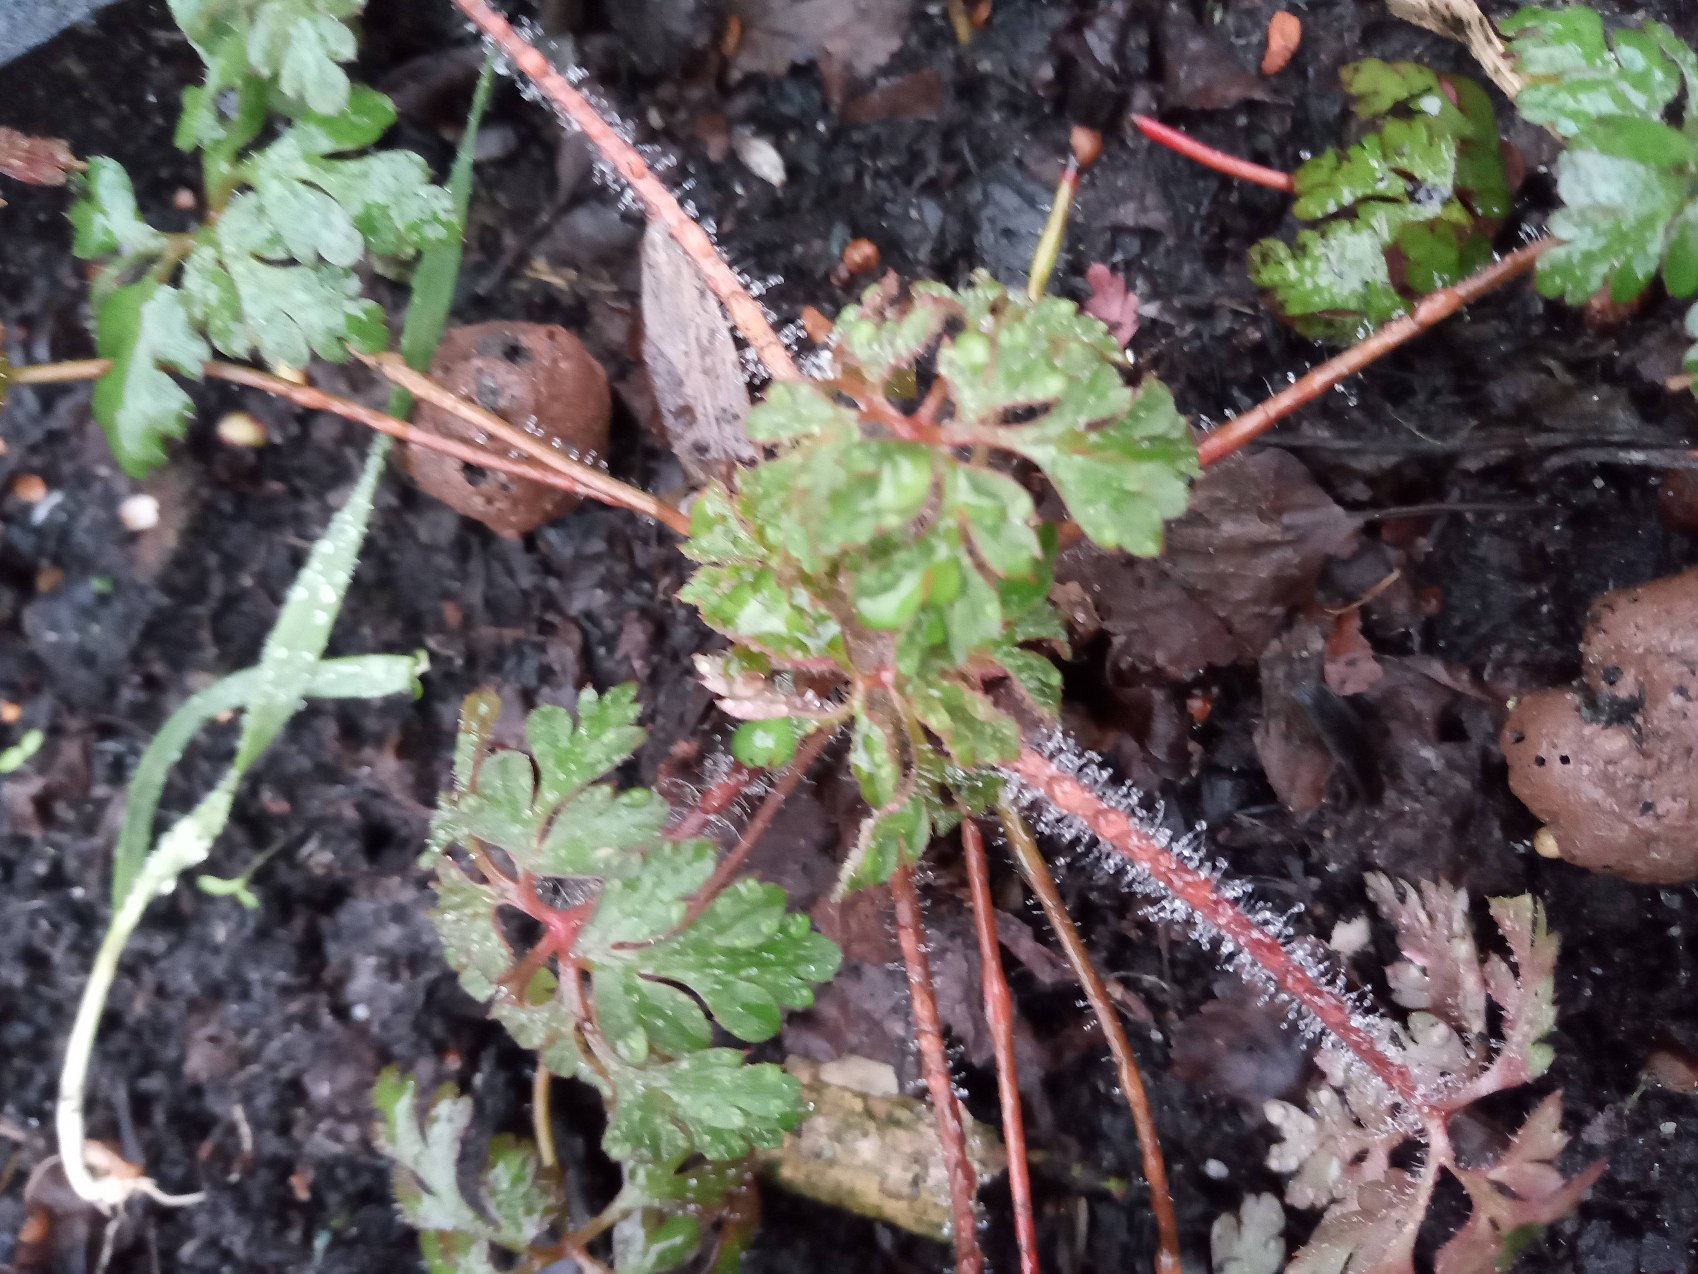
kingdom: Plantae
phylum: Tracheophyta
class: Magnoliopsida
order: Geraniales
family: Geraniaceae
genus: Geranium
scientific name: Geranium robertianum
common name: Stinkende storkenæb
